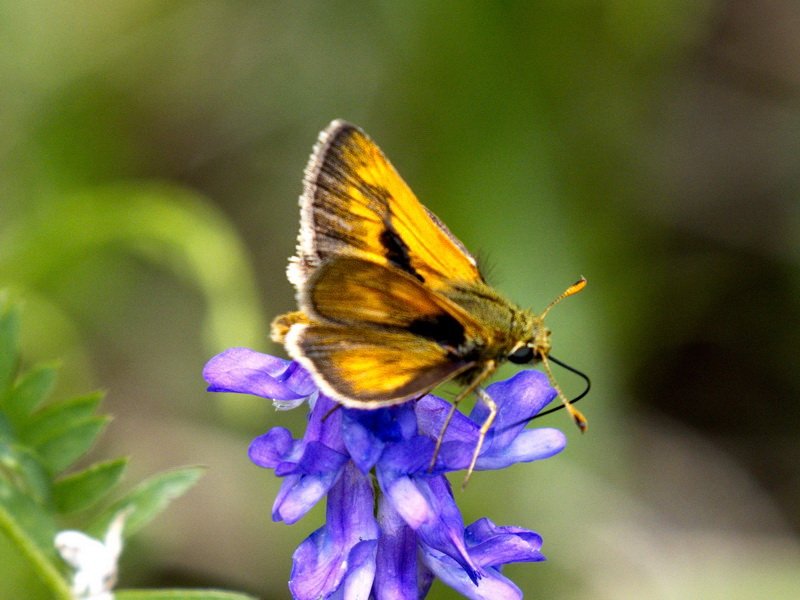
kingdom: Animalia
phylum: Arthropoda
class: Insecta
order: Lepidoptera
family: Hesperiidae
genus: Polites
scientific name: Polites
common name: Long Dash Skipper
